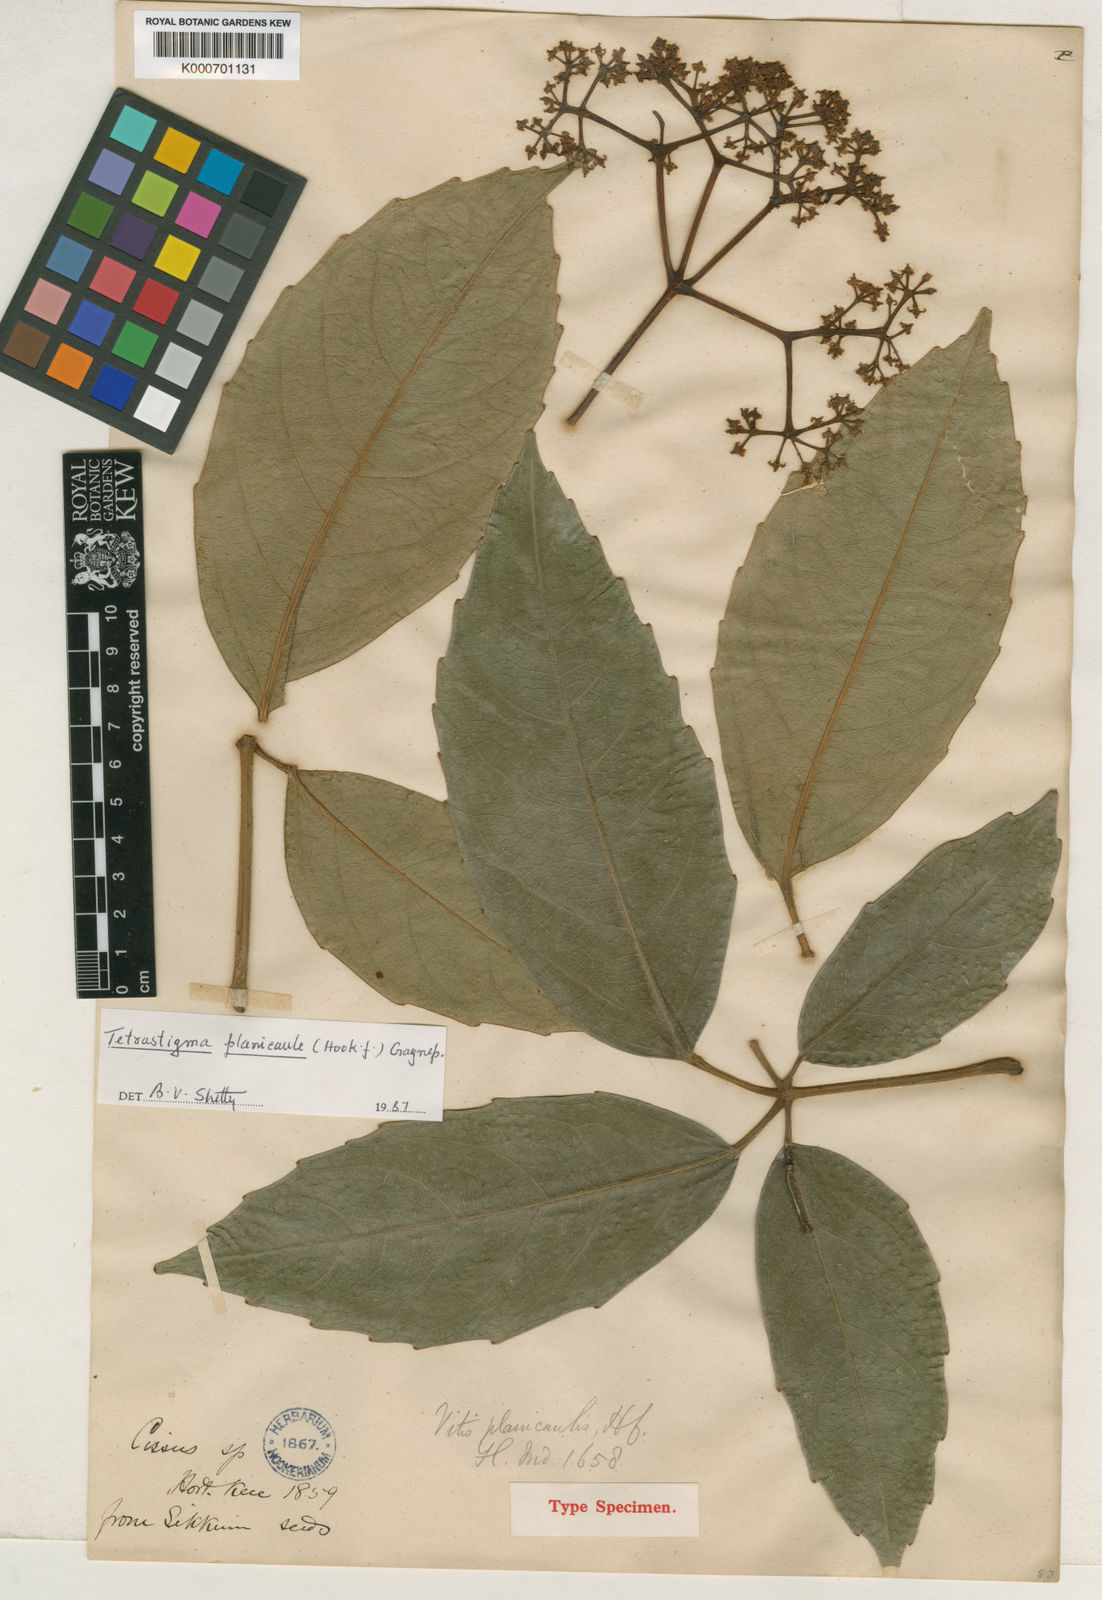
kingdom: Plantae
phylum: Tracheophyta
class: Magnoliopsida
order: Vitales
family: Vitaceae
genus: Tetrastigma
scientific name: Tetrastigma planicaule
